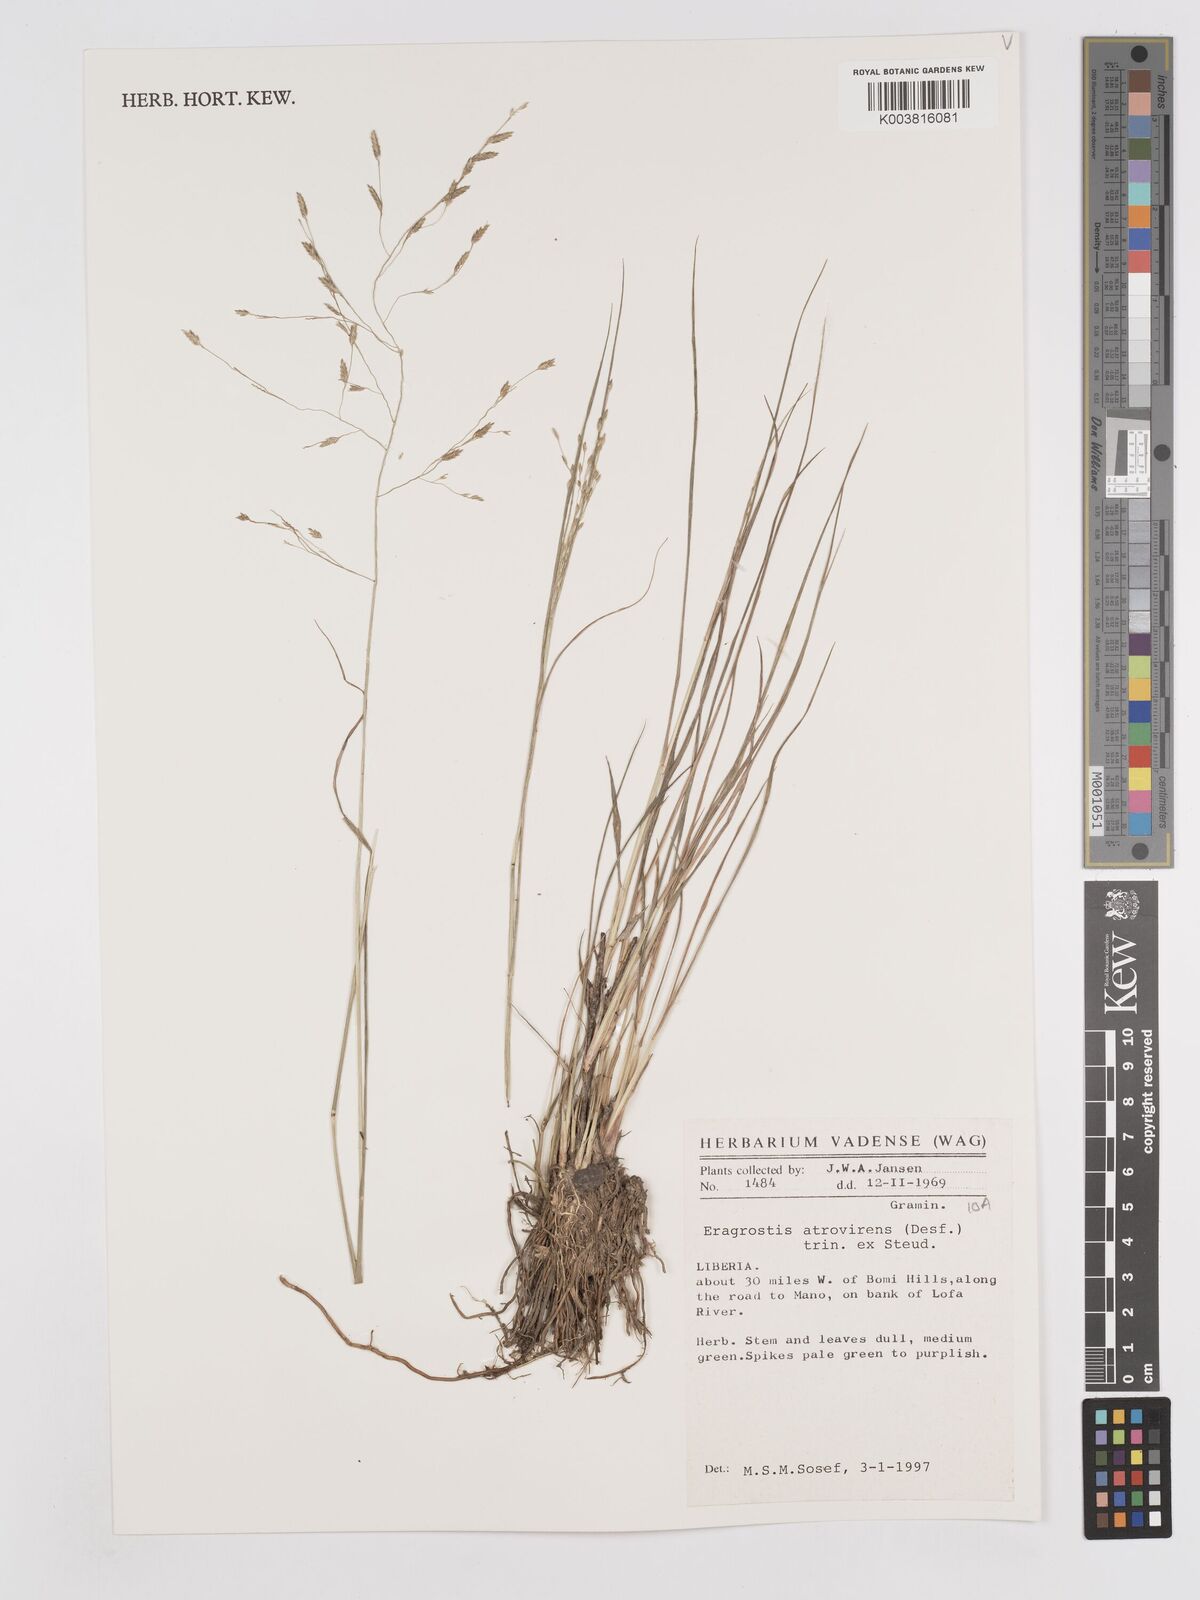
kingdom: Plantae
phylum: Tracheophyta
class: Liliopsida
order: Poales
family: Poaceae
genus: Eragrostis
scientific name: Eragrostis atrovirens
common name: Thalia lovegrass
